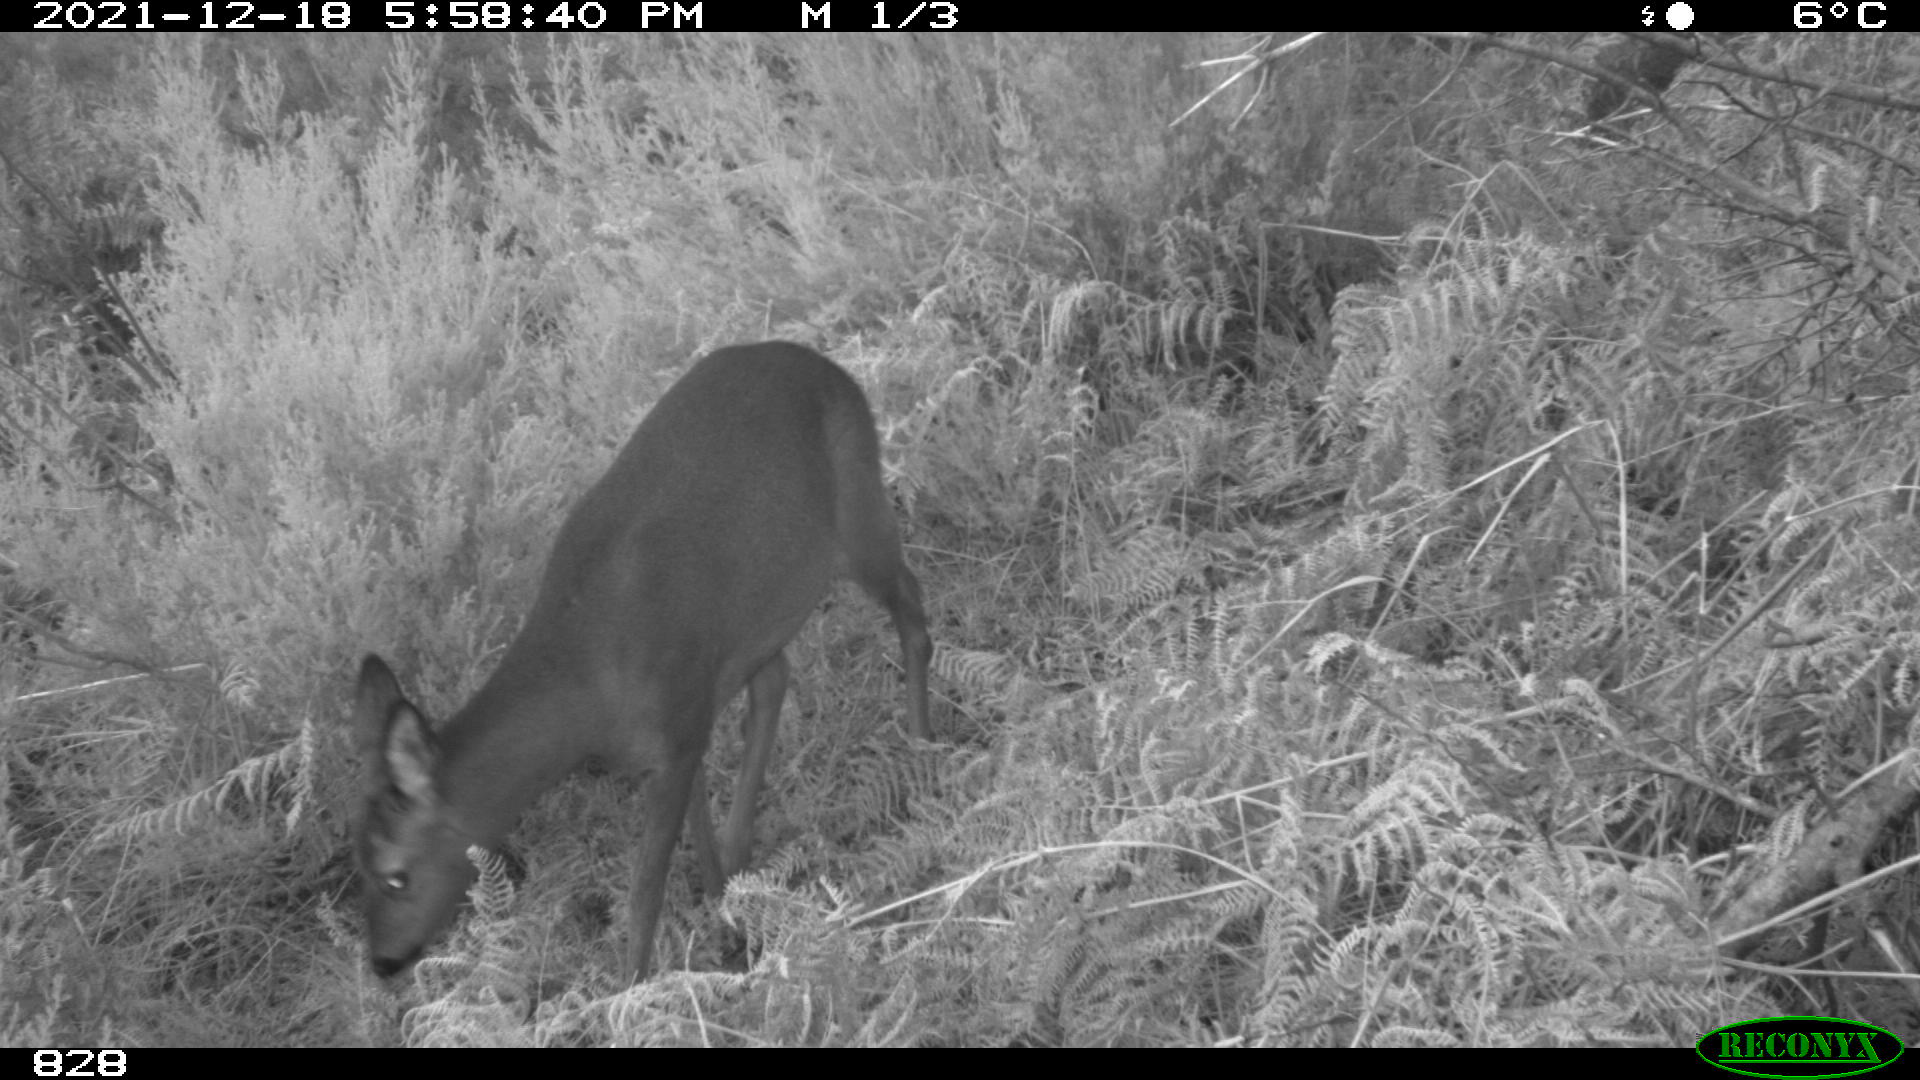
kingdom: Animalia
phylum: Chordata
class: Mammalia
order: Artiodactyla
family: Cervidae
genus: Capreolus
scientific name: Capreolus capreolus
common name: Western roe deer
